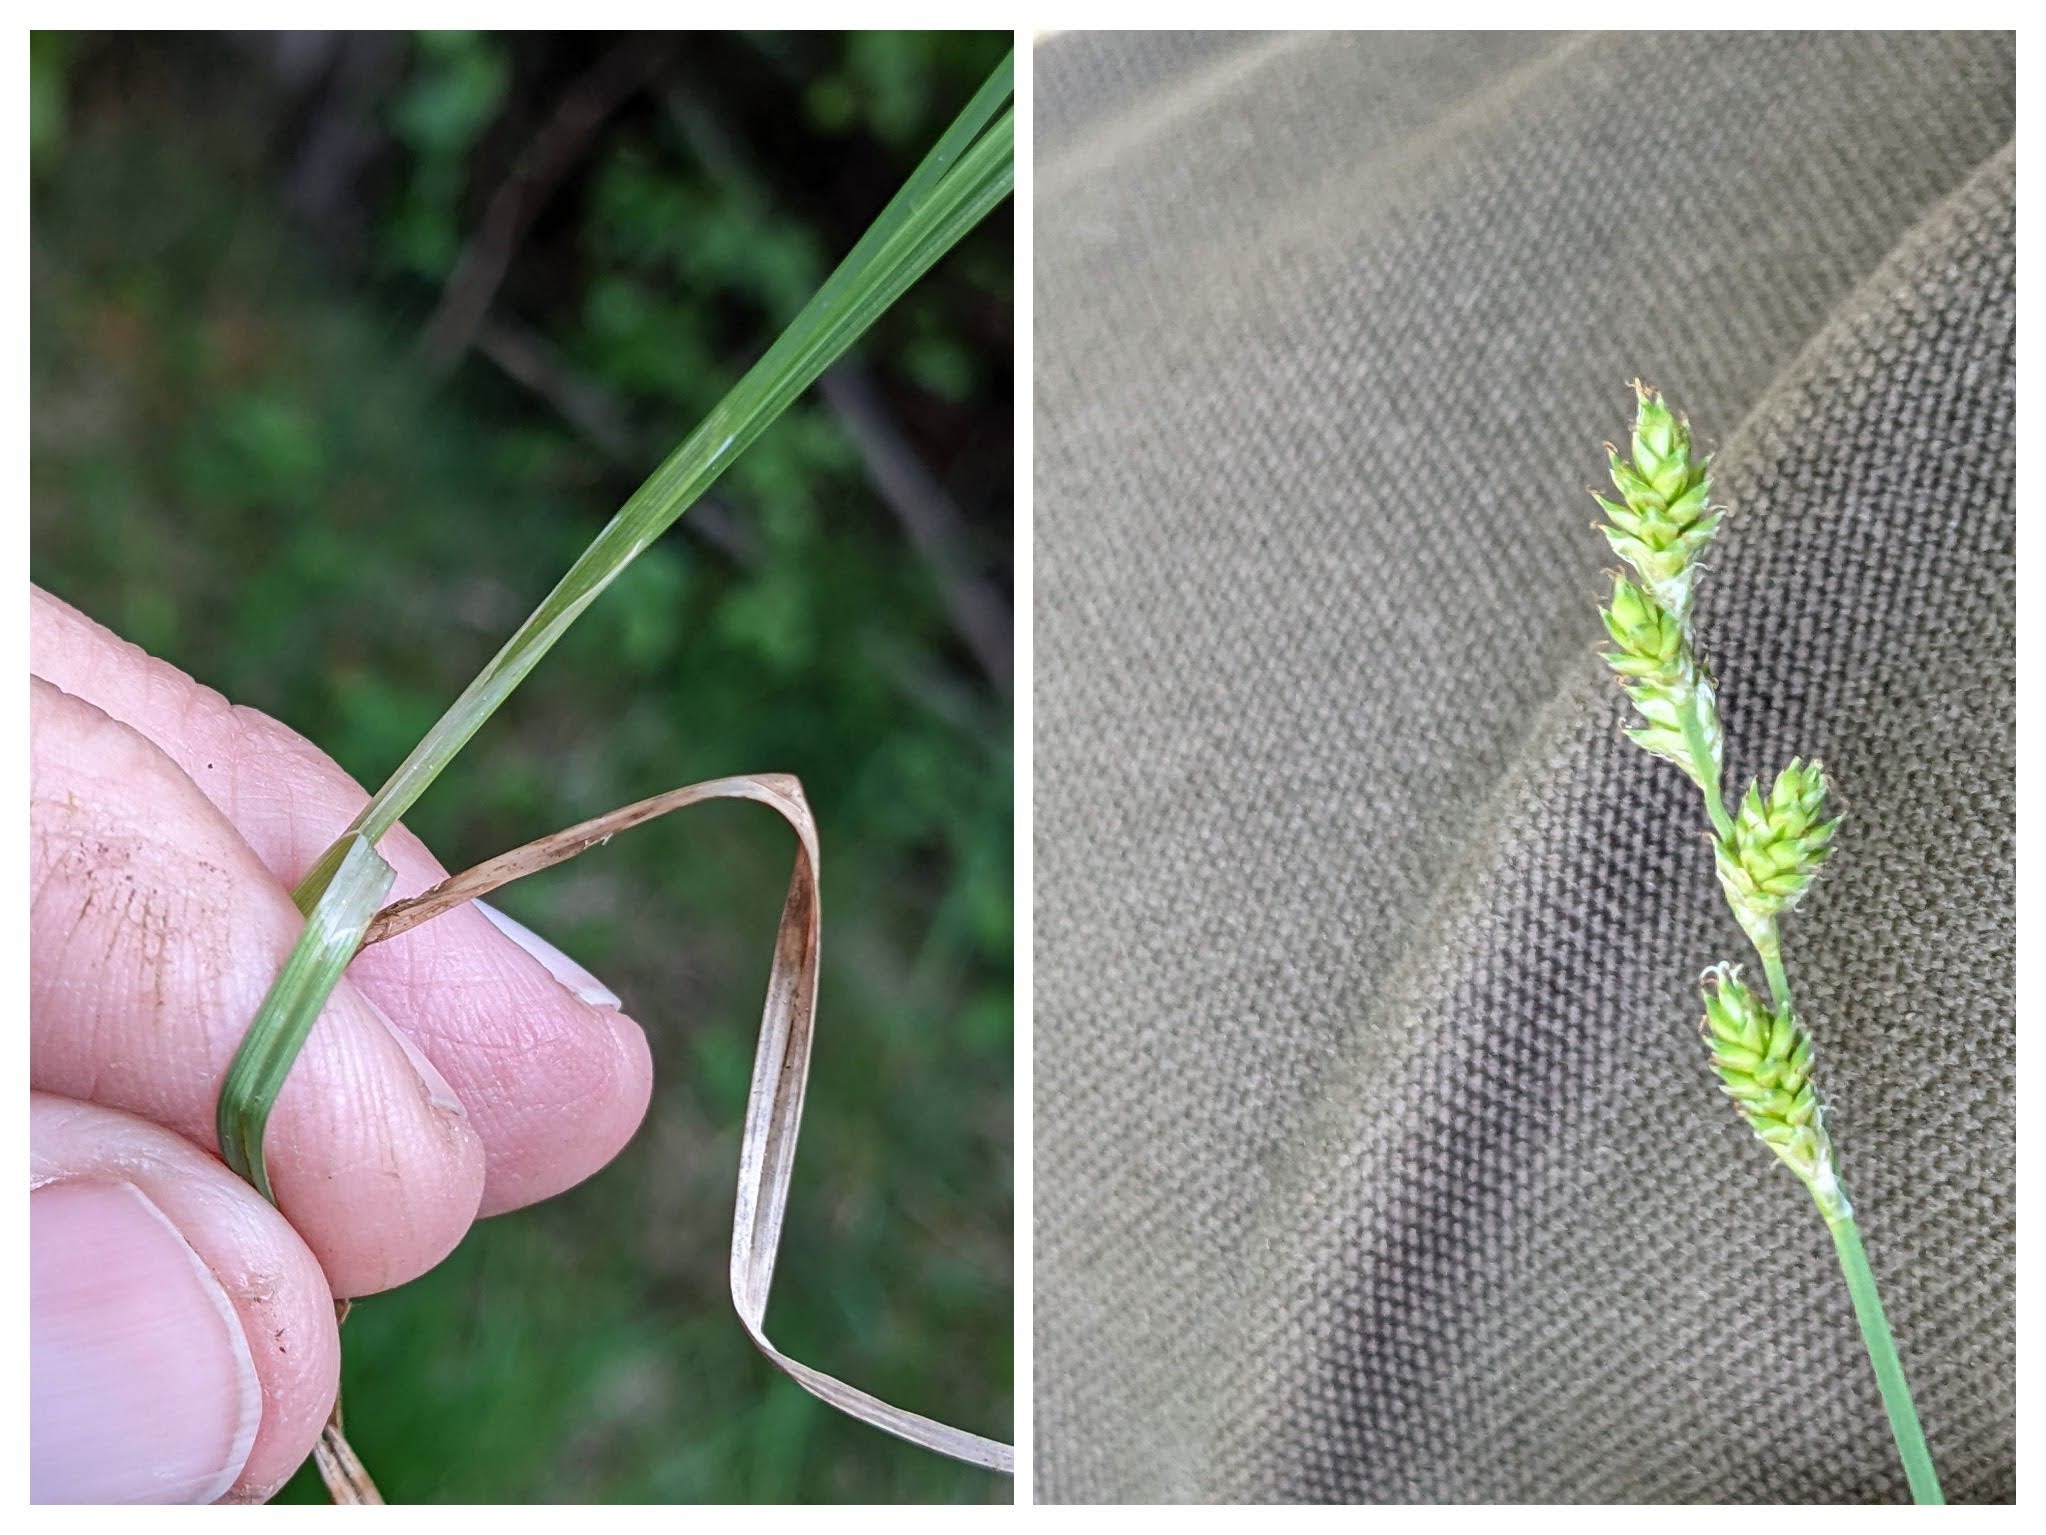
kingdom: Plantae
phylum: Tracheophyta
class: Liliopsida
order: Poales
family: Cyperaceae
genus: Carex
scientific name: Carex canescens
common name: Grå star
